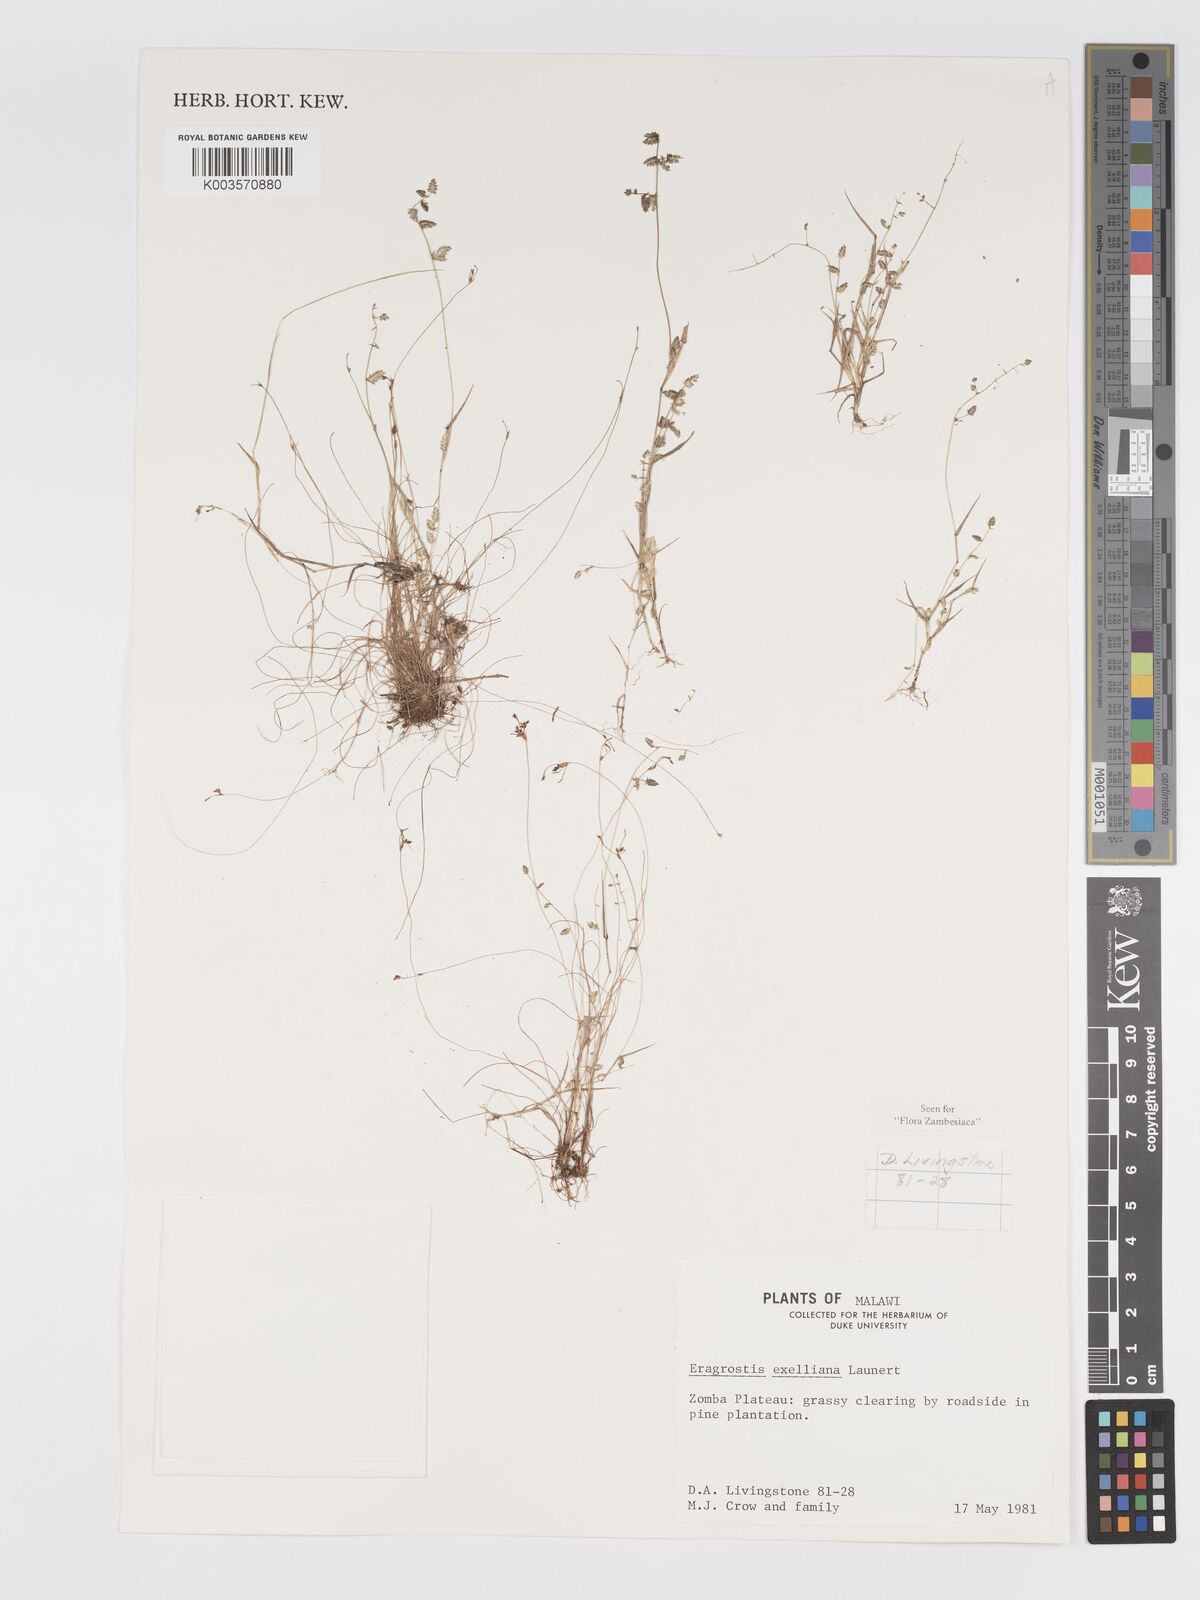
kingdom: Plantae
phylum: Tracheophyta
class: Liliopsida
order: Poales
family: Poaceae
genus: Eragrostis
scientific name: Eragrostis exelliana
